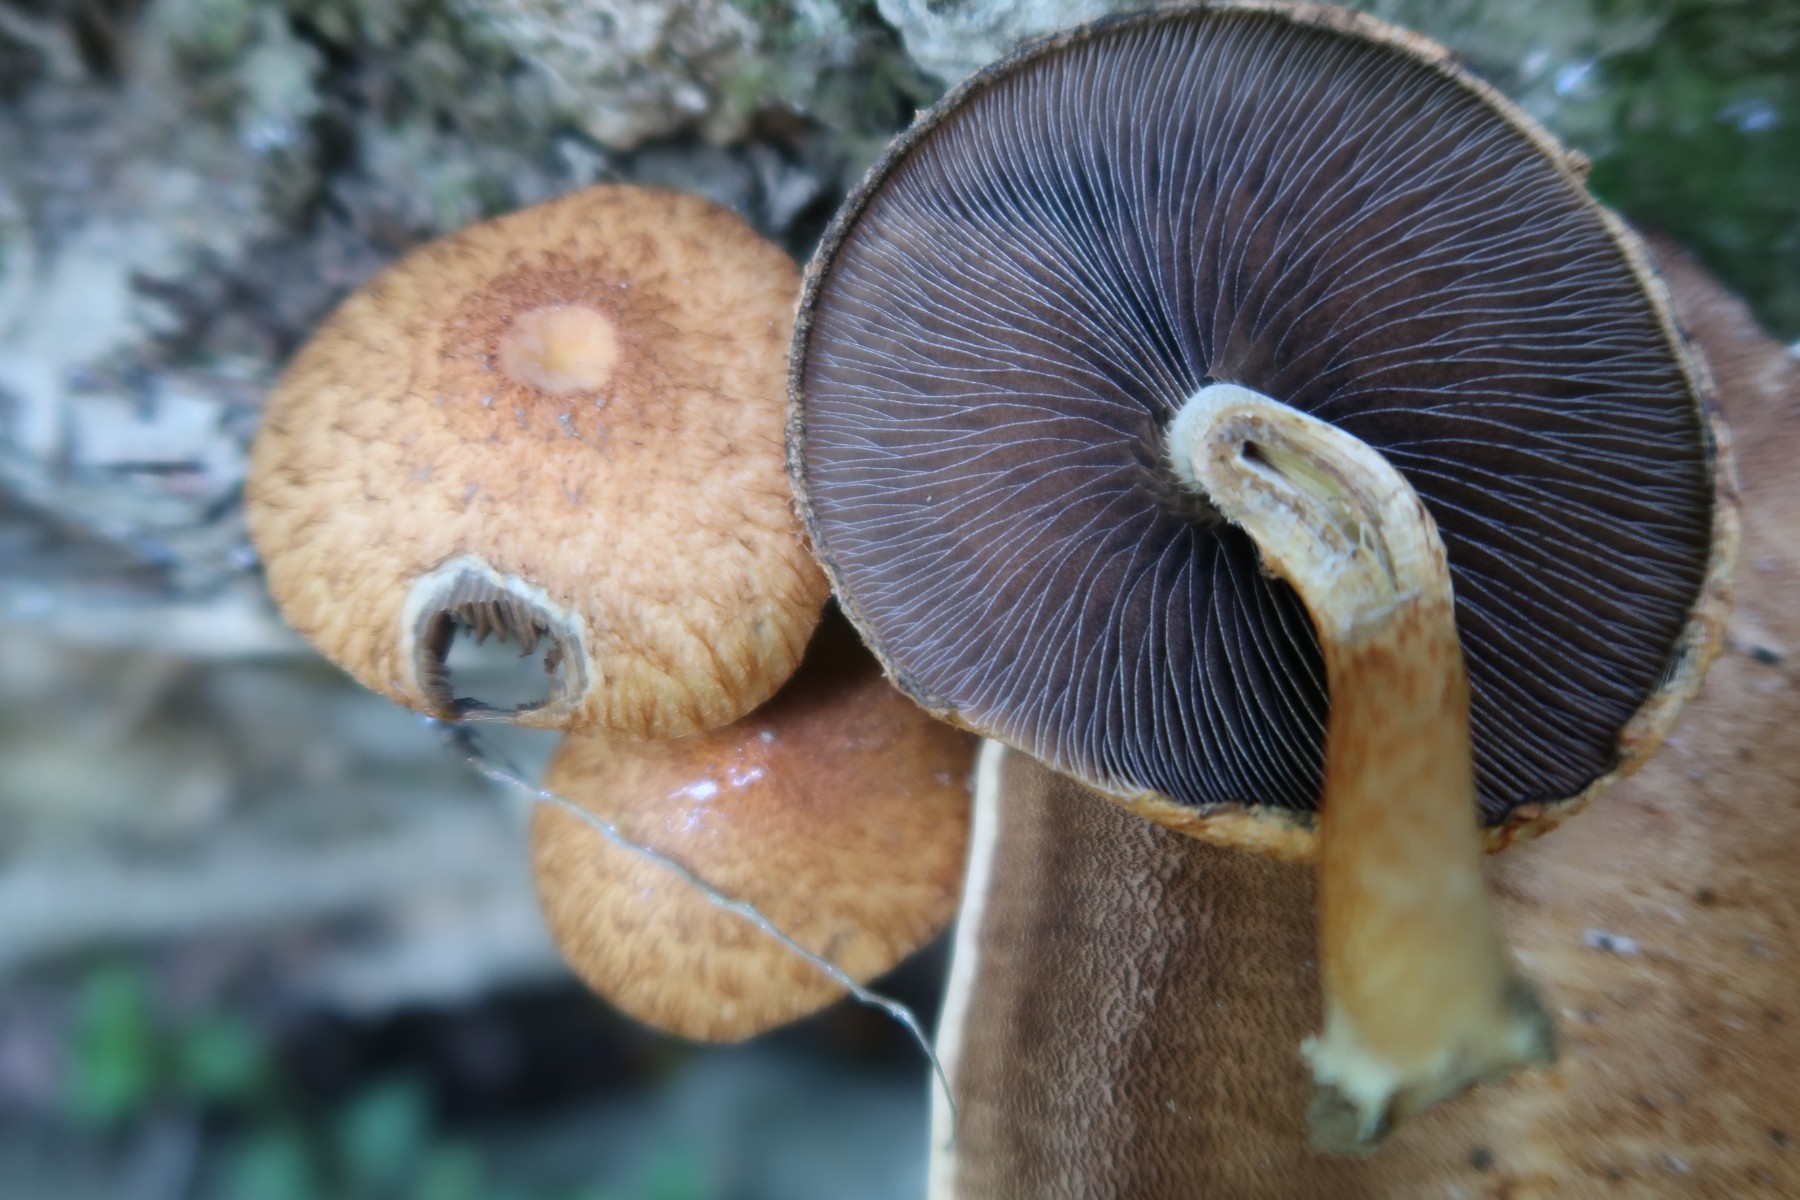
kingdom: Fungi
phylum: Basidiomycota
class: Agaricomycetes
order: Agaricales
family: Psathyrellaceae
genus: Lacrymaria
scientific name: Lacrymaria lacrymabunda
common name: grædende mørkhat
